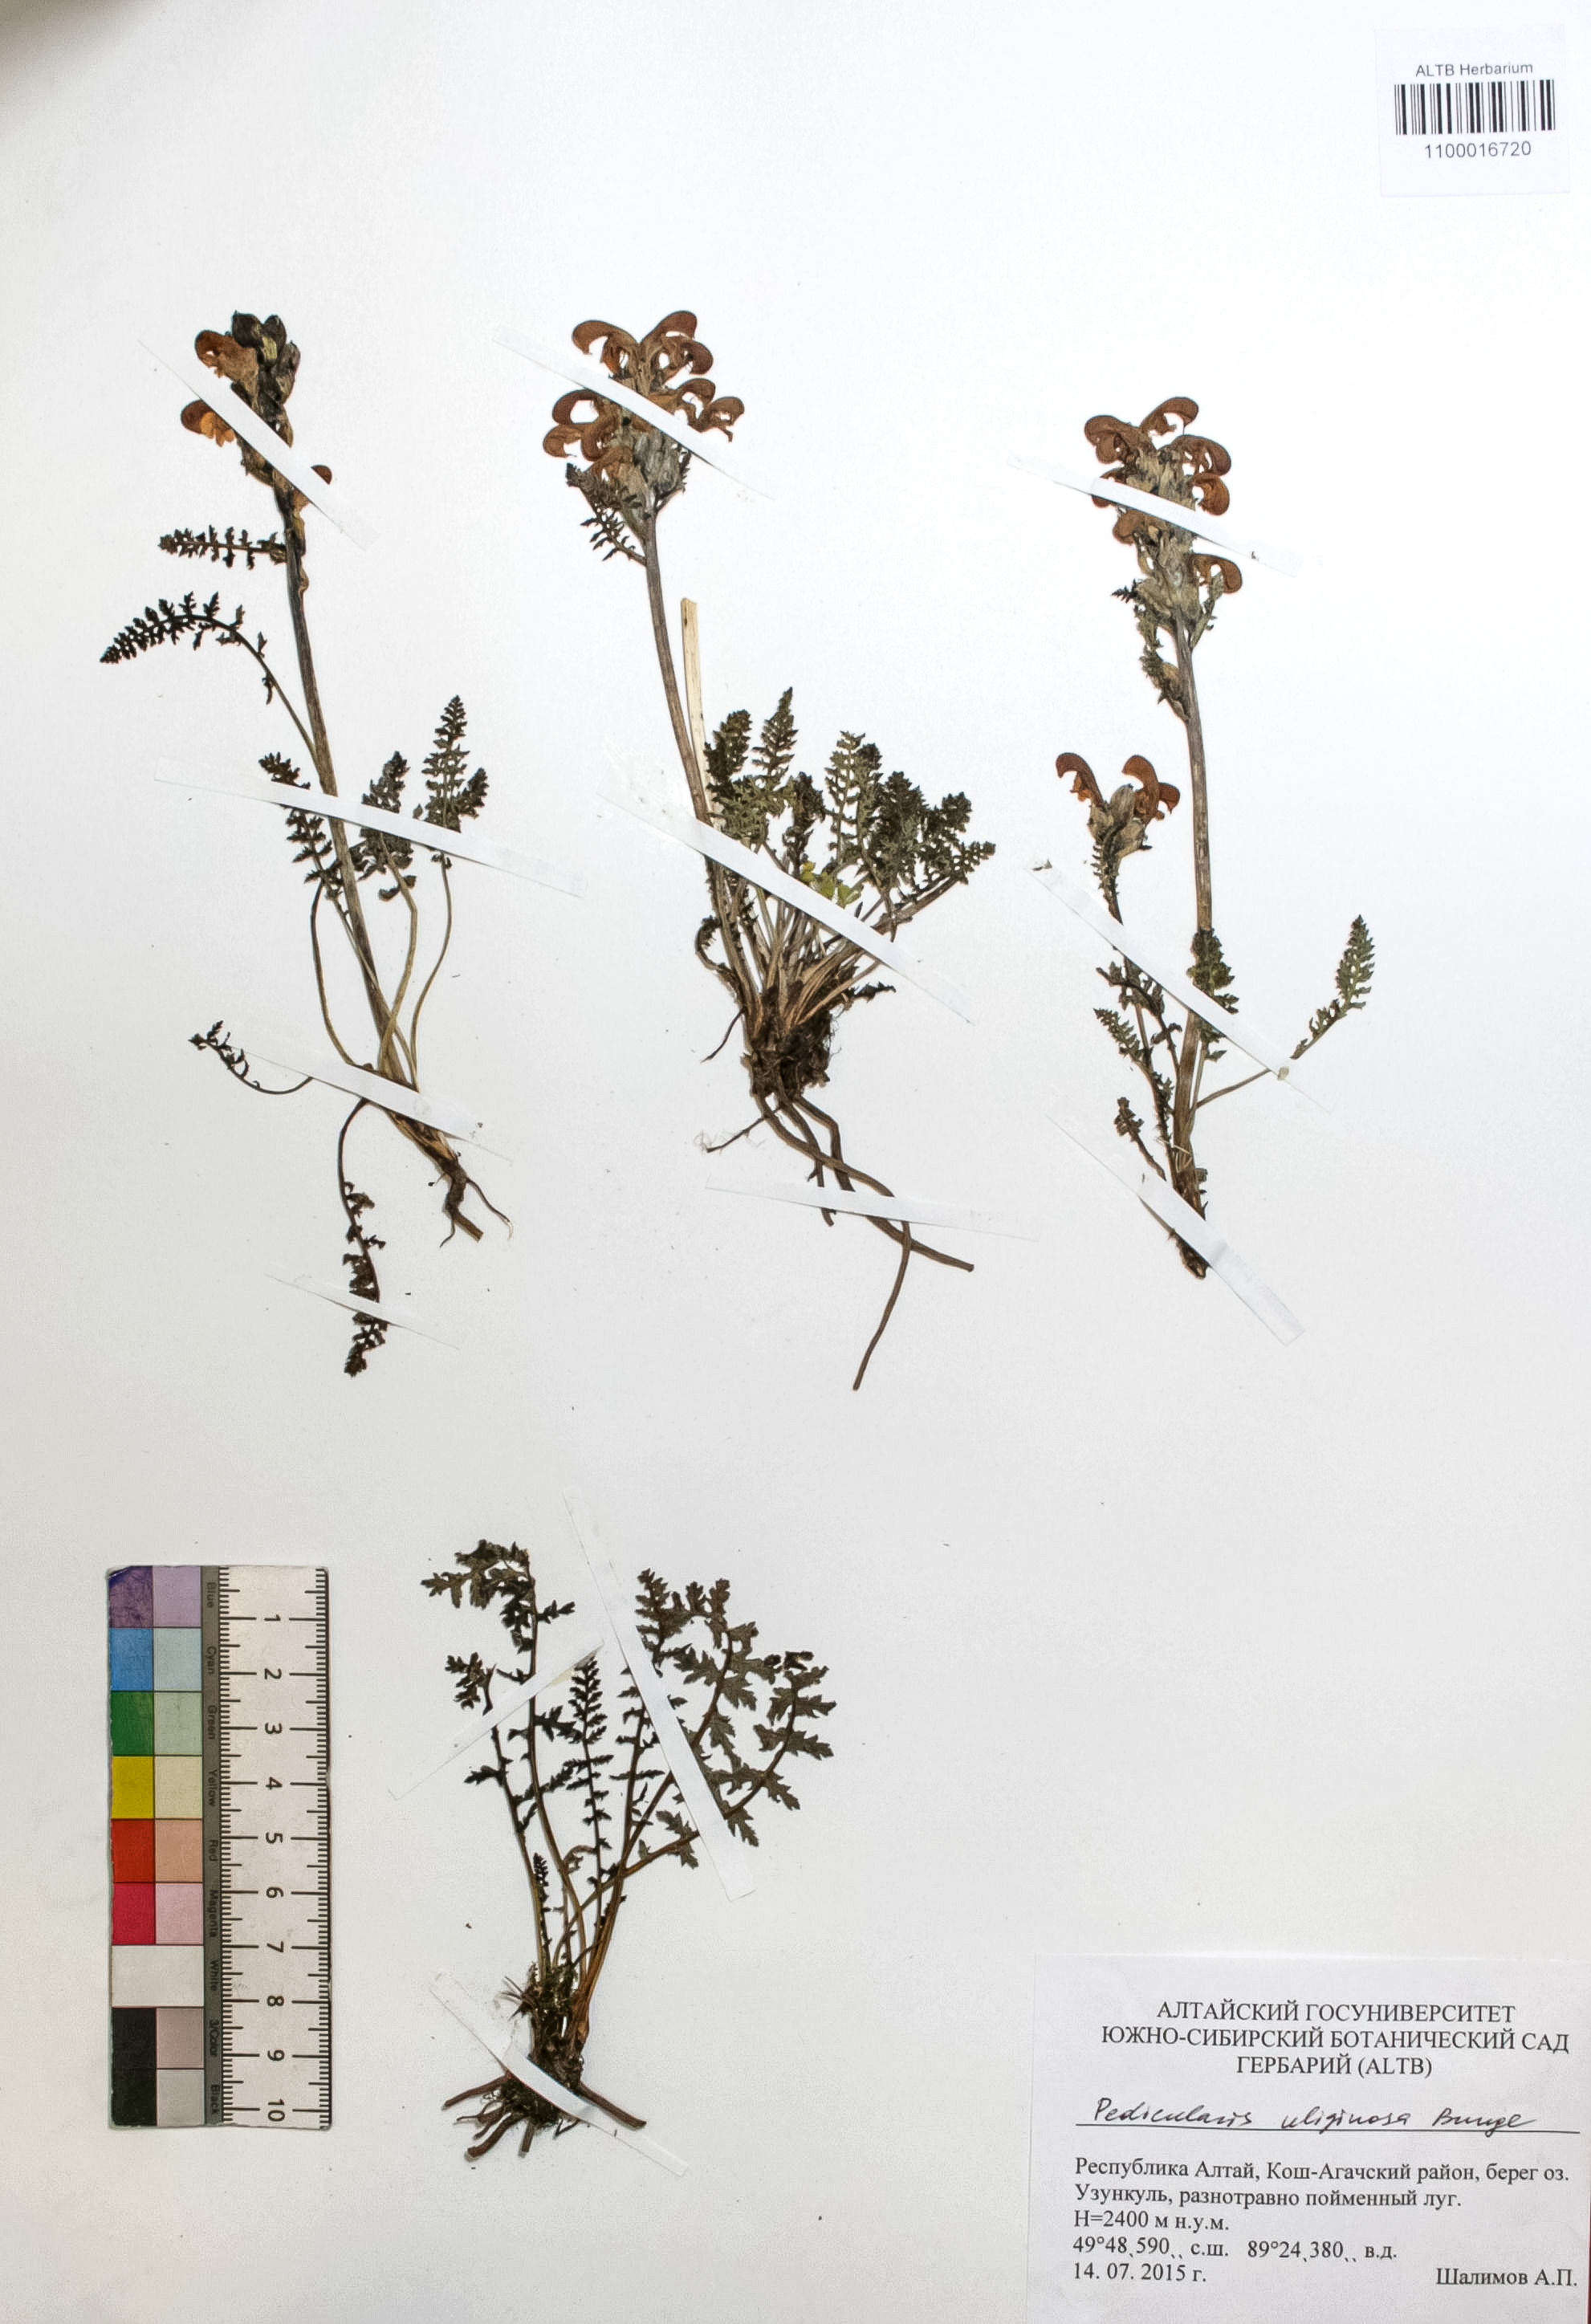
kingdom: Plantae
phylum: Tracheophyta
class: Magnoliopsida
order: Lamiales
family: Orobanchaceae
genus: Pedicularis
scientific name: Pedicularis uliginosa
